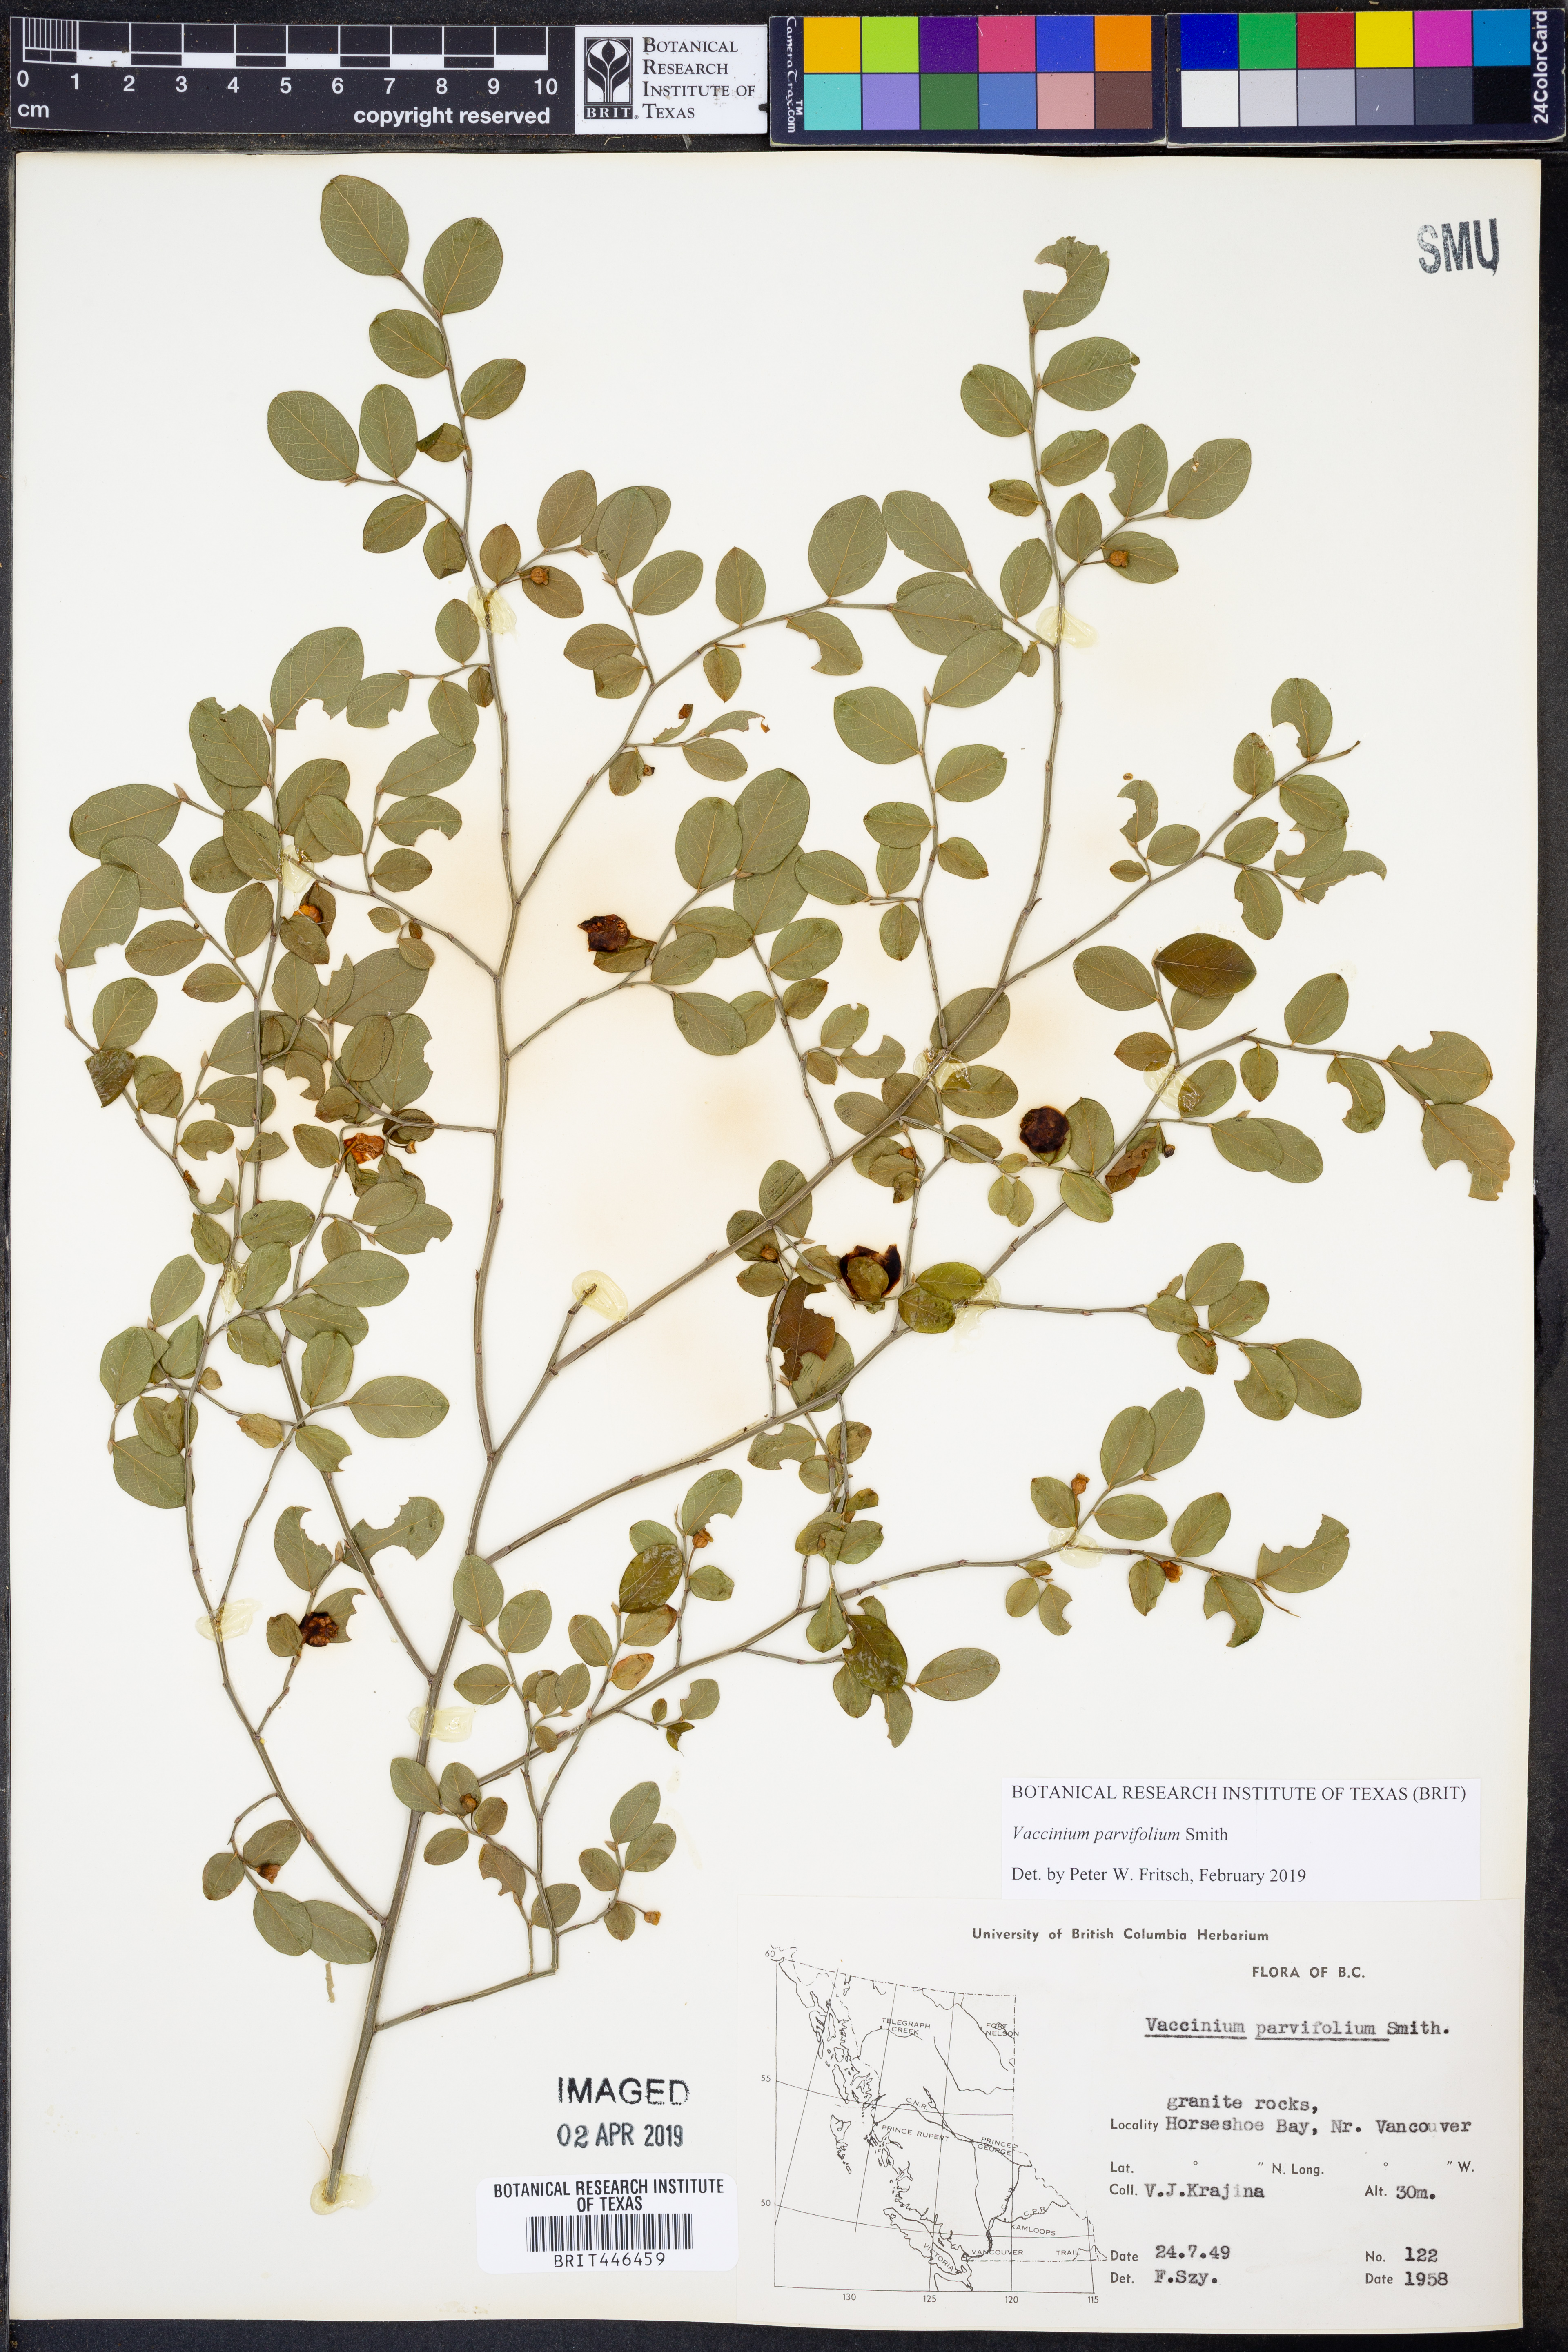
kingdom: Plantae
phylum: Tracheophyta
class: Magnoliopsida
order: Ericales
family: Ericaceae
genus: Vaccinium
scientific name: Vaccinium parvifolium
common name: Red-huckleberry
